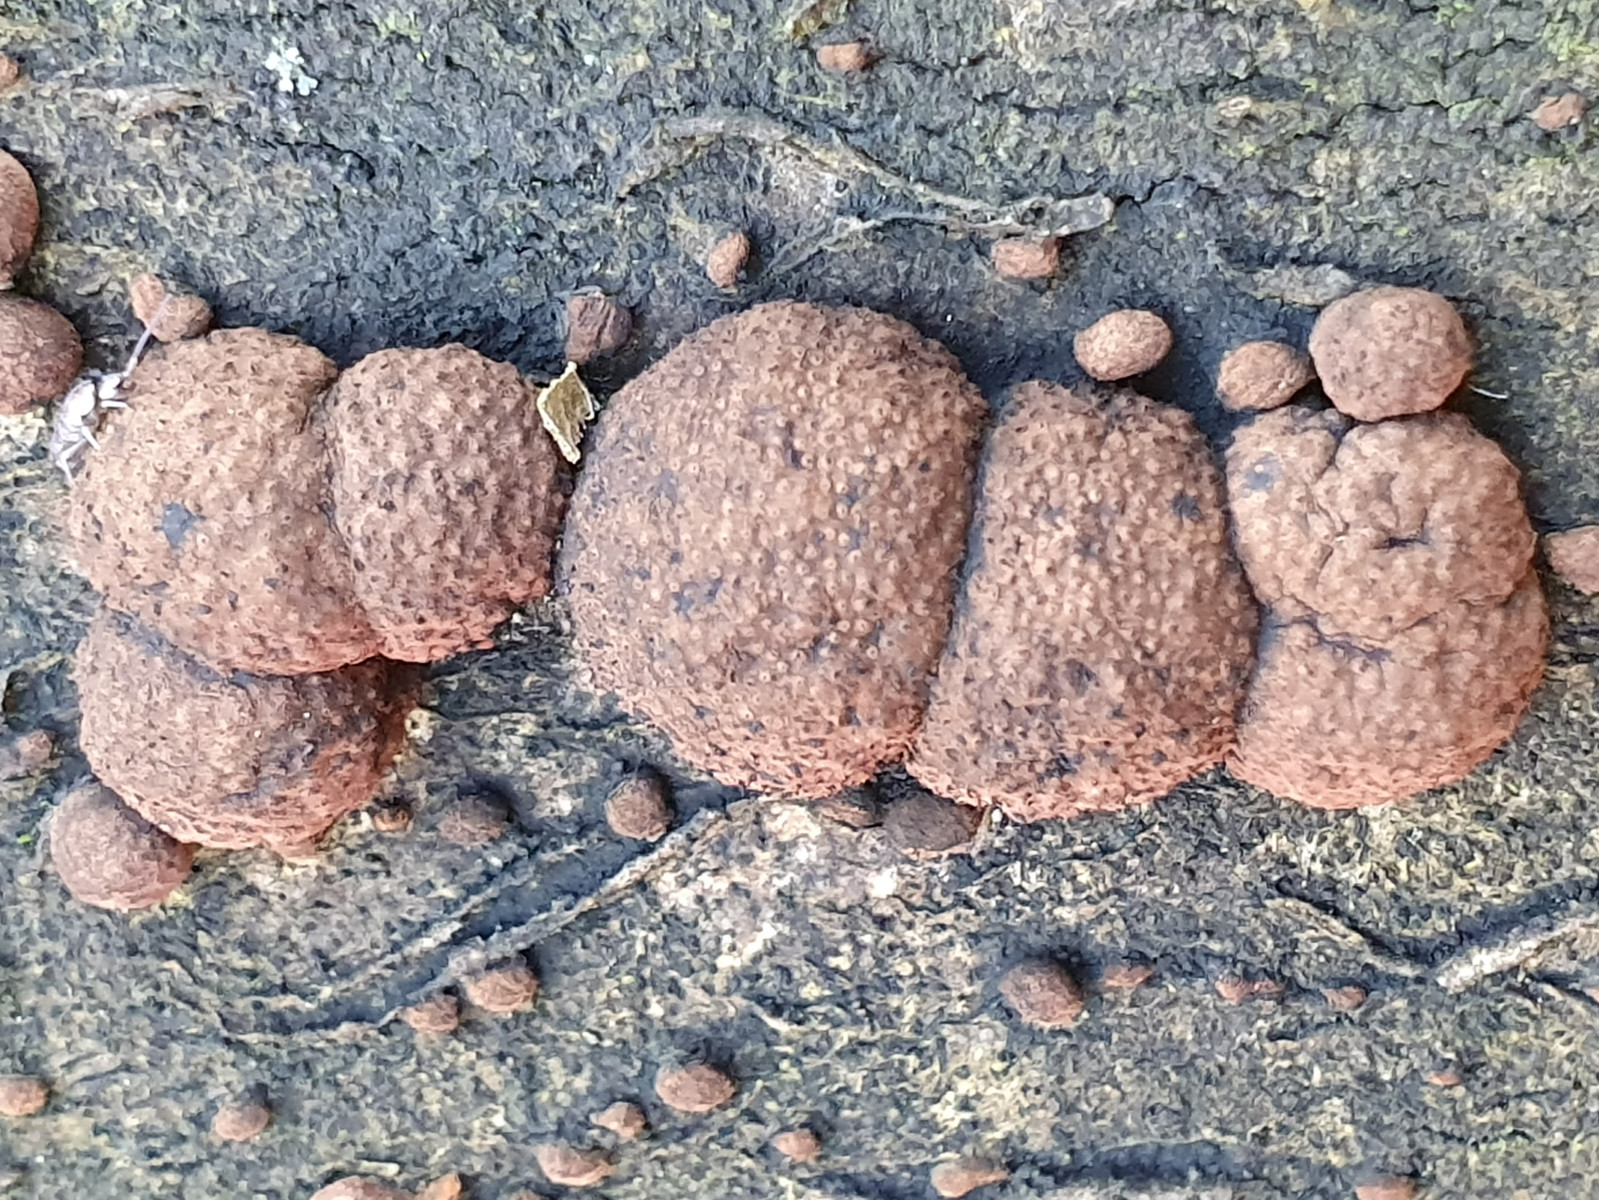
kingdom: Fungi
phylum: Ascomycota
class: Sordariomycetes
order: Xylariales
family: Hypoxylaceae
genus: Hypoxylon
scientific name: Hypoxylon fragiforme
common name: kuljordbær
